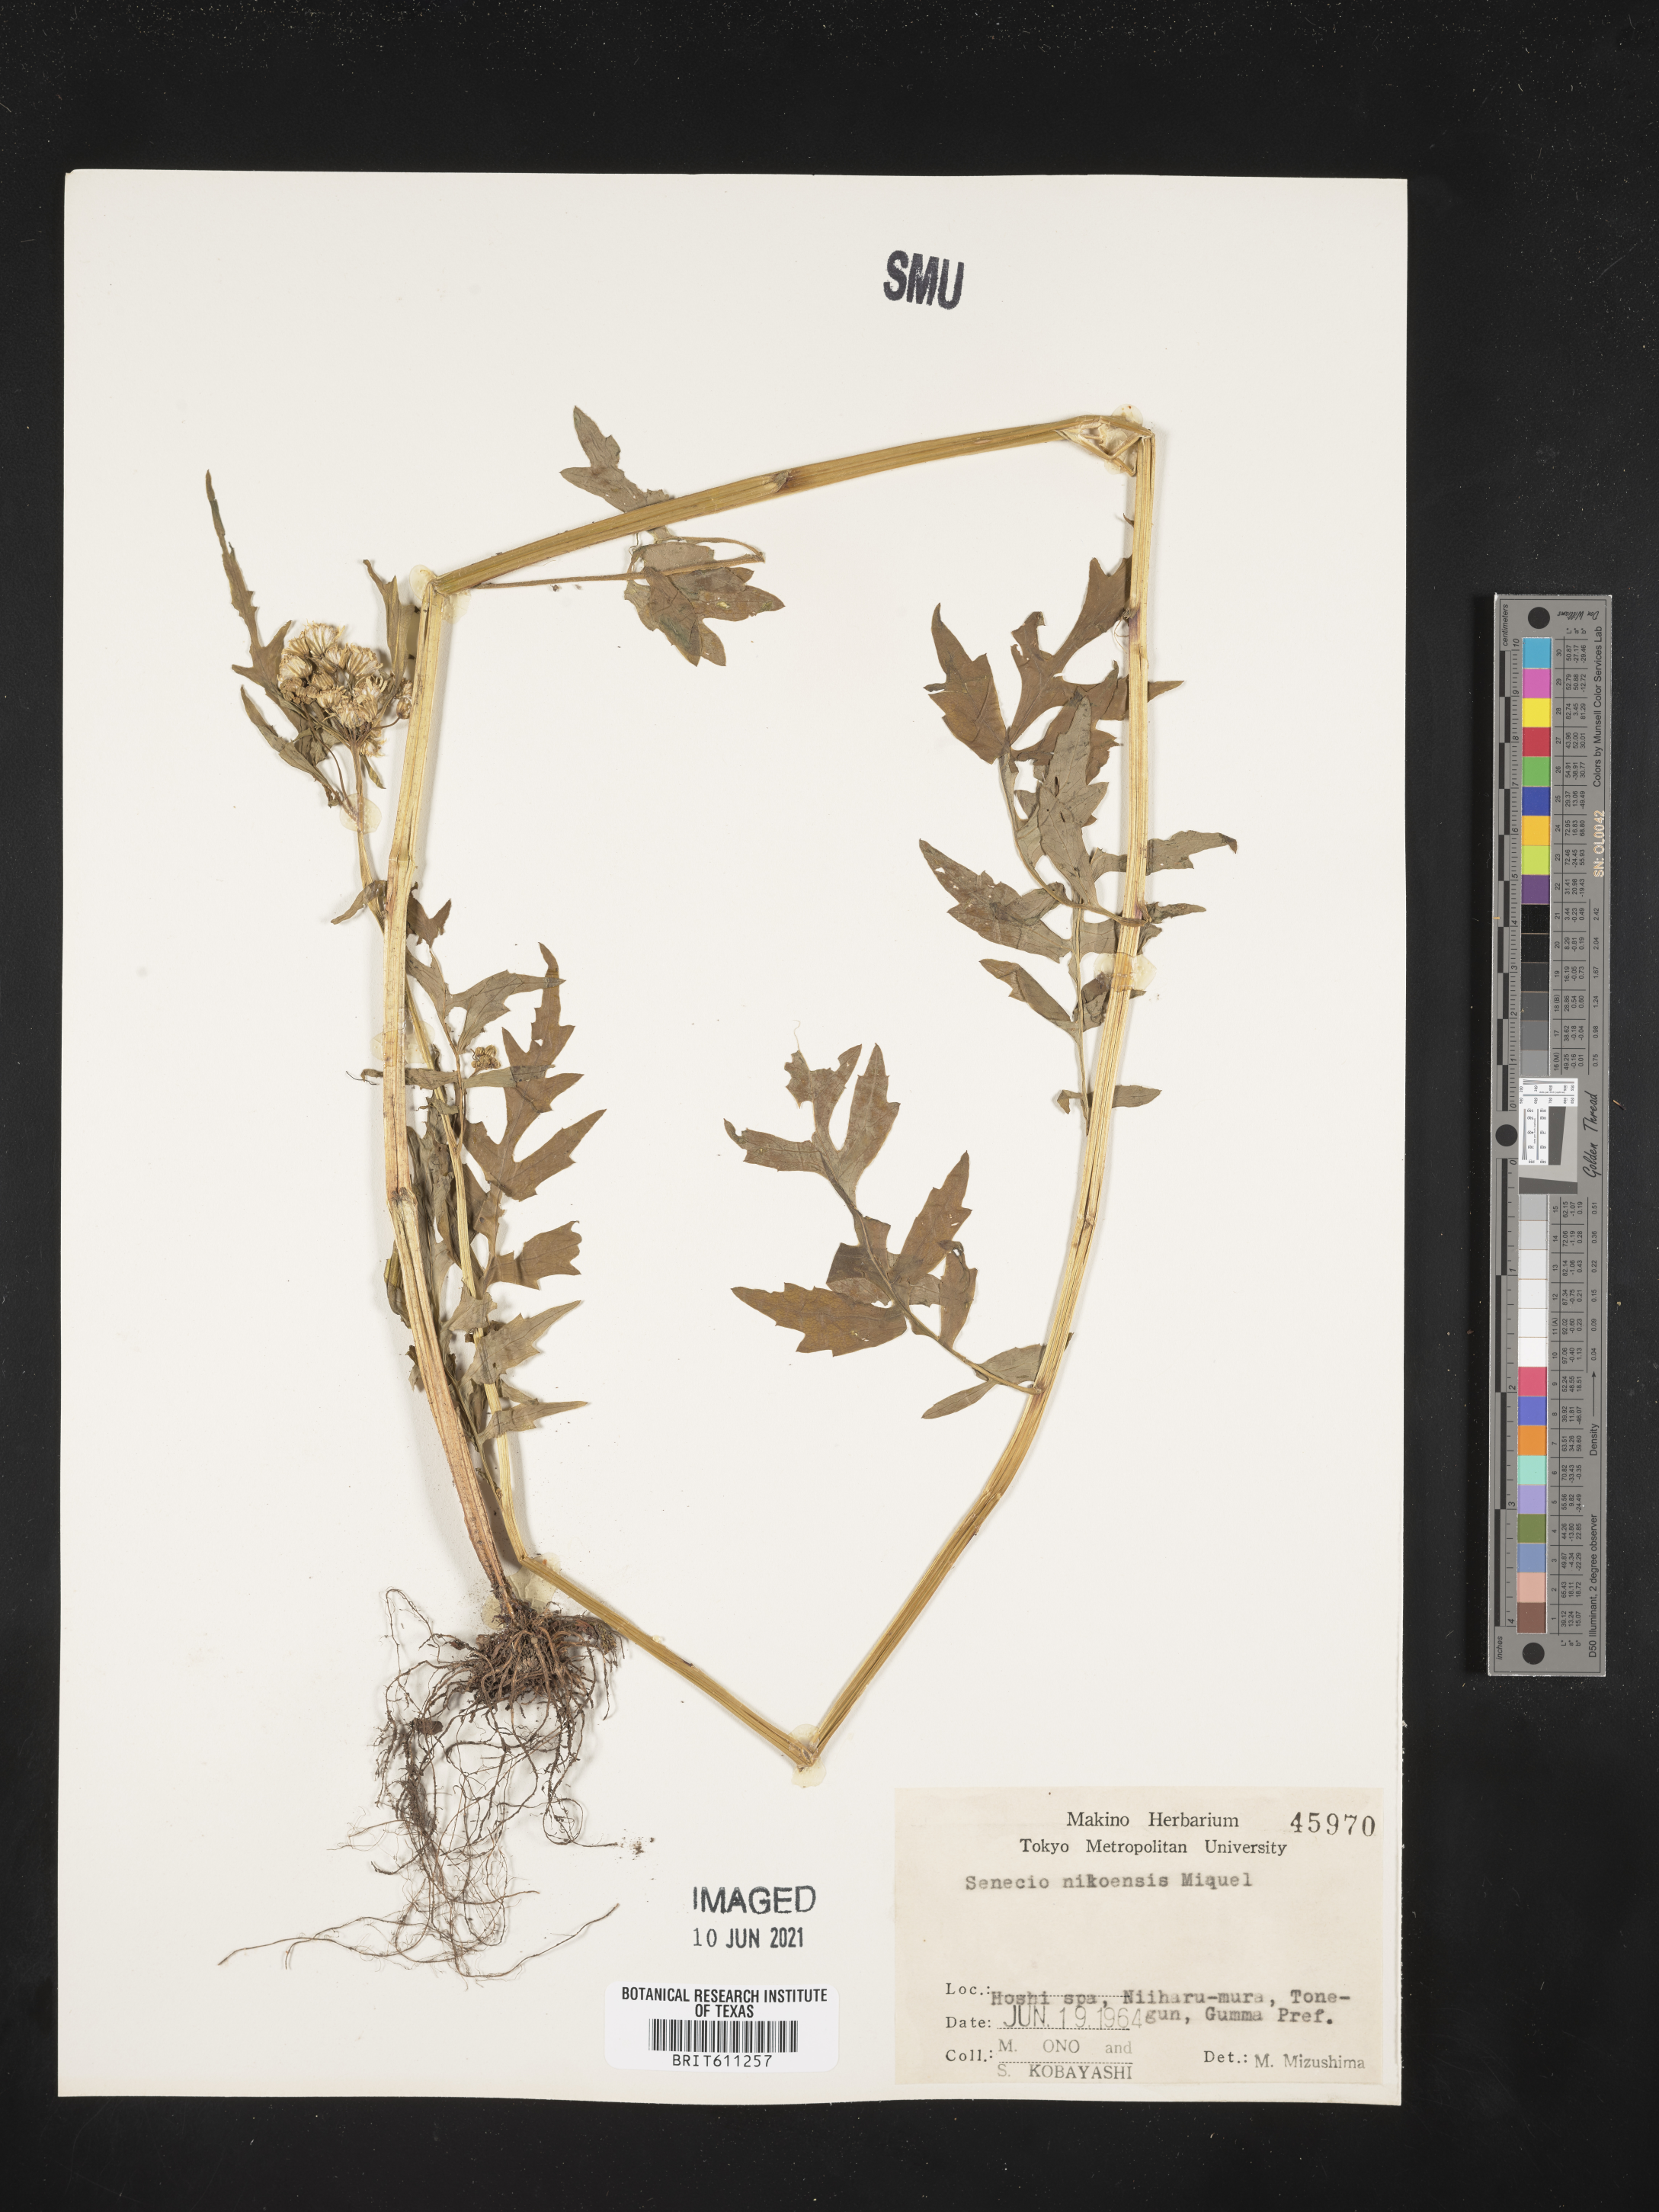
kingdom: Plantae
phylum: Tracheophyta
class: Magnoliopsida
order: Asterales
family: Asteraceae
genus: Nemosenecio
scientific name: Nemosenecio nikoensis
